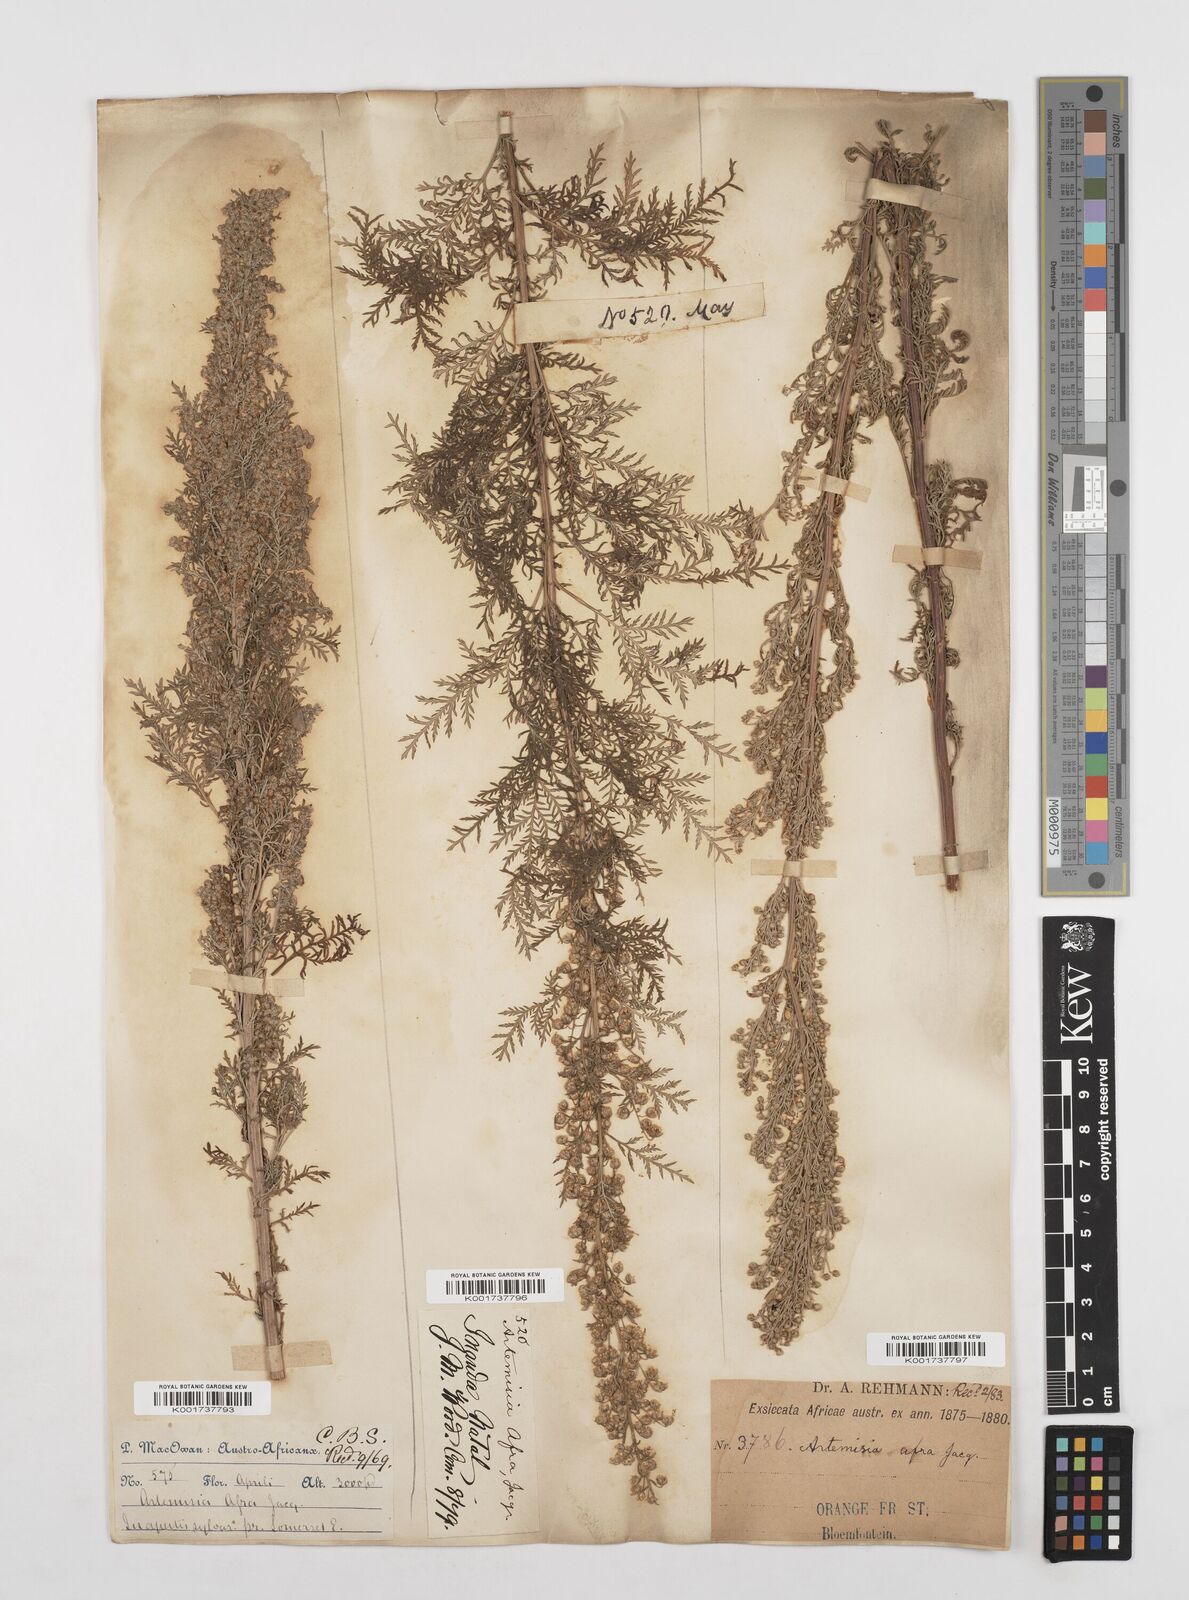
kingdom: Plantae
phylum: Tracheophyta
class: Magnoliopsida
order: Asterales
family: Asteraceae
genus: Artemisia
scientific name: Artemisia afra
